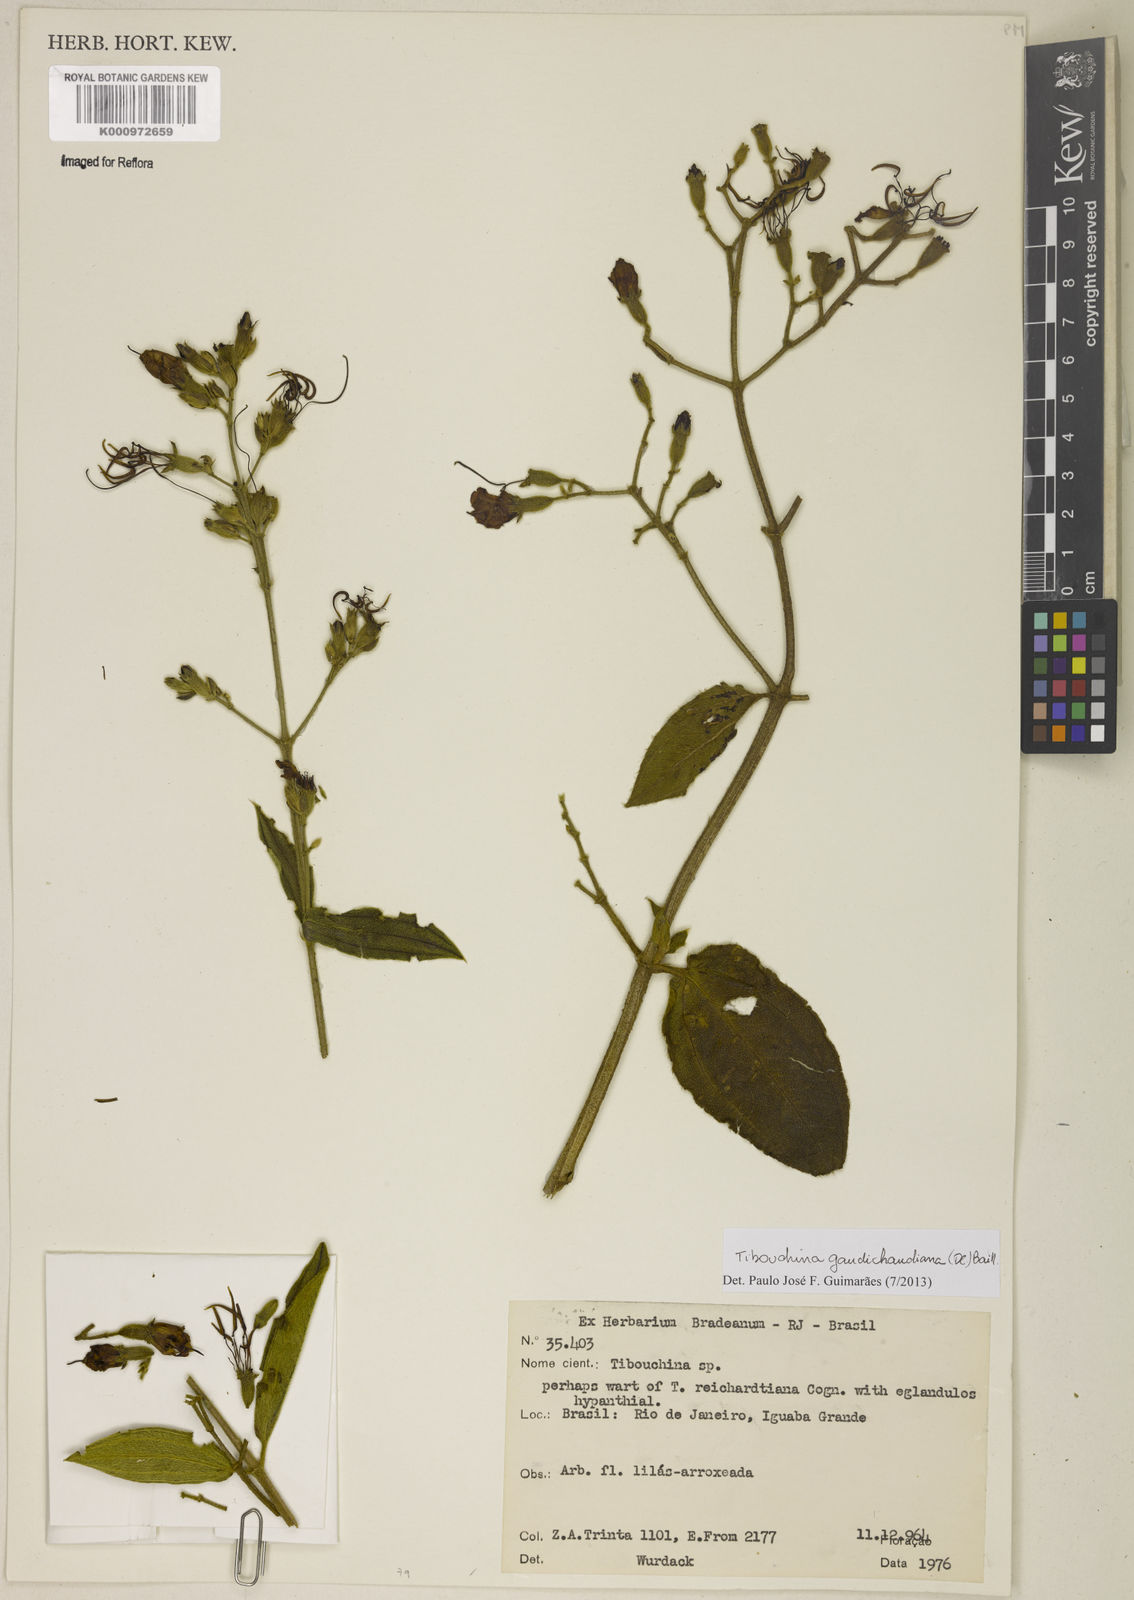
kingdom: Plantae
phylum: Tracheophyta
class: Magnoliopsida
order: Myrtales
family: Melastomataceae
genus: Pleroma
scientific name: Pleroma gaudichaudianum
